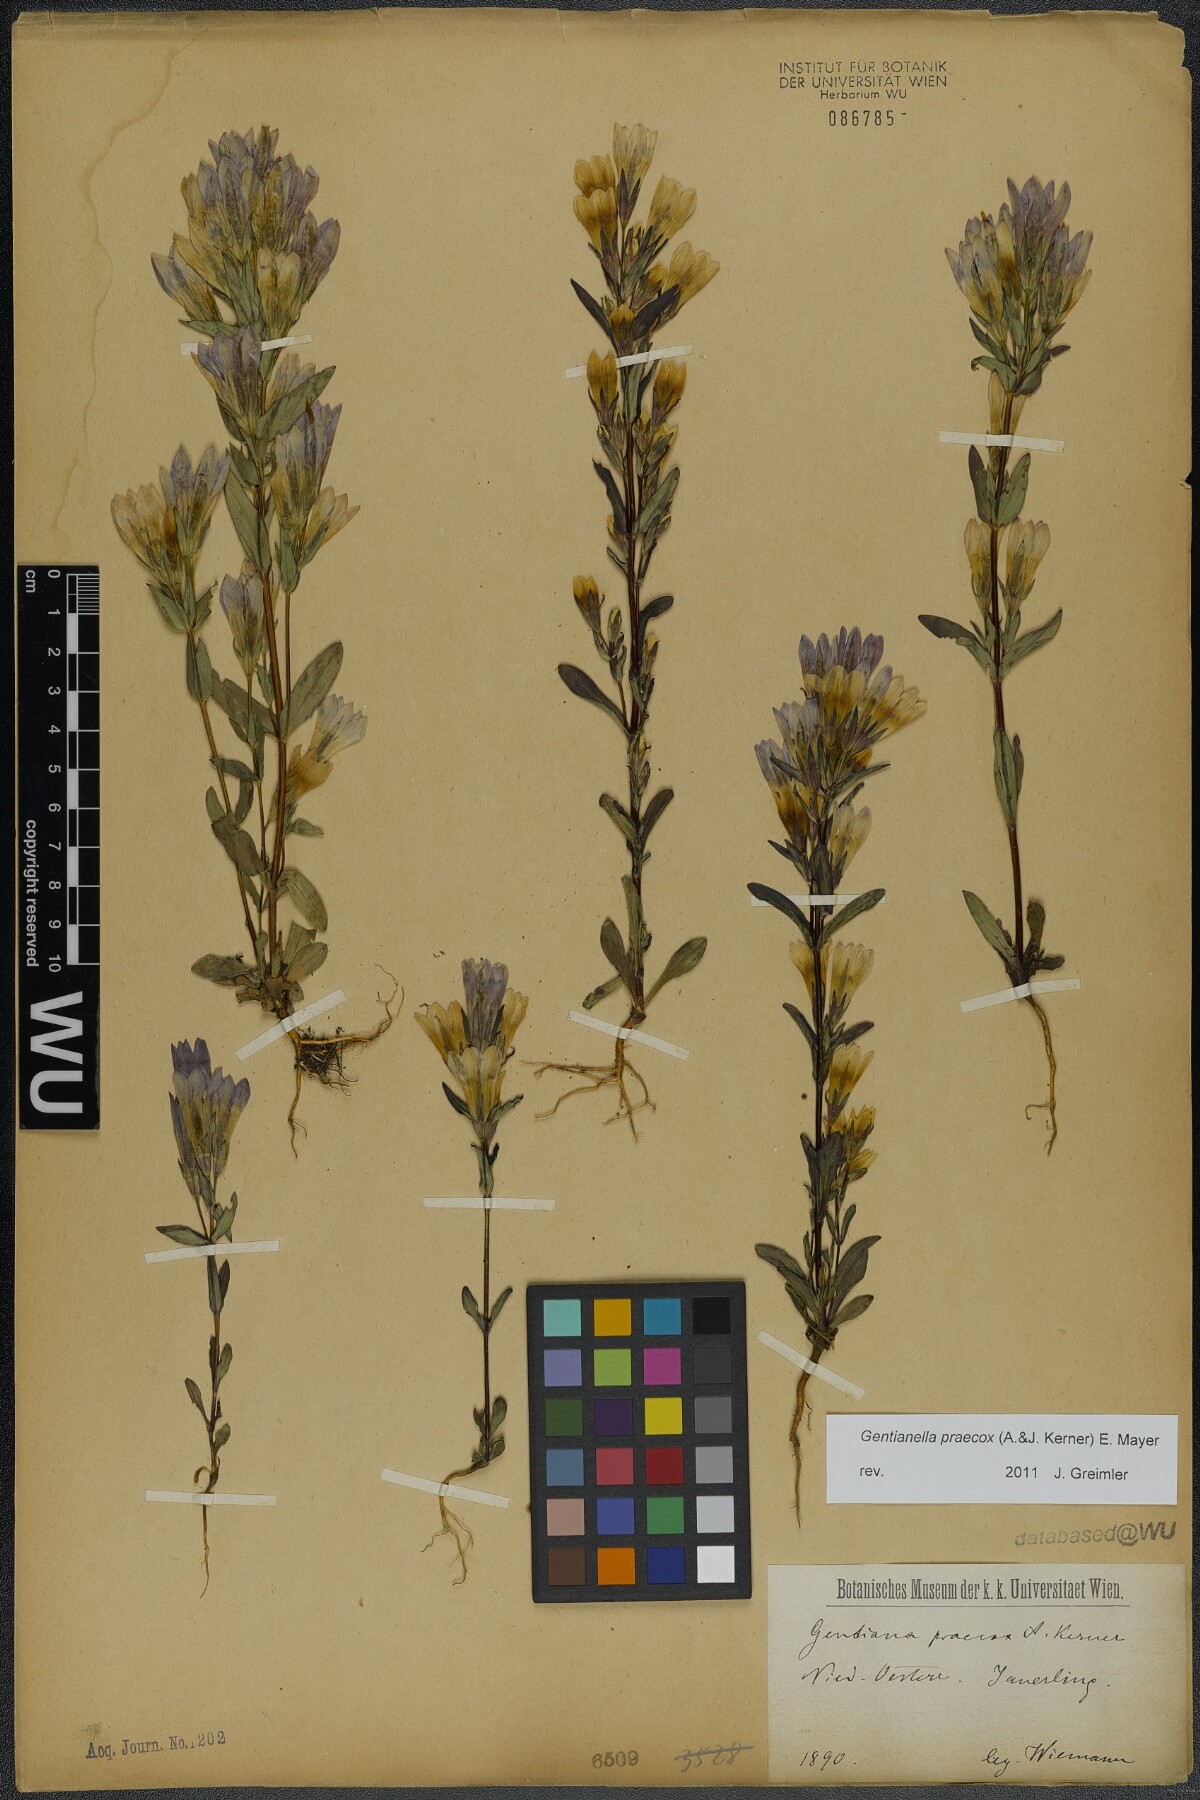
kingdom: Plantae
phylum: Tracheophyta
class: Magnoliopsida
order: Gentianales
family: Gentianaceae
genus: Gentianella
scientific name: Gentianella praecox
